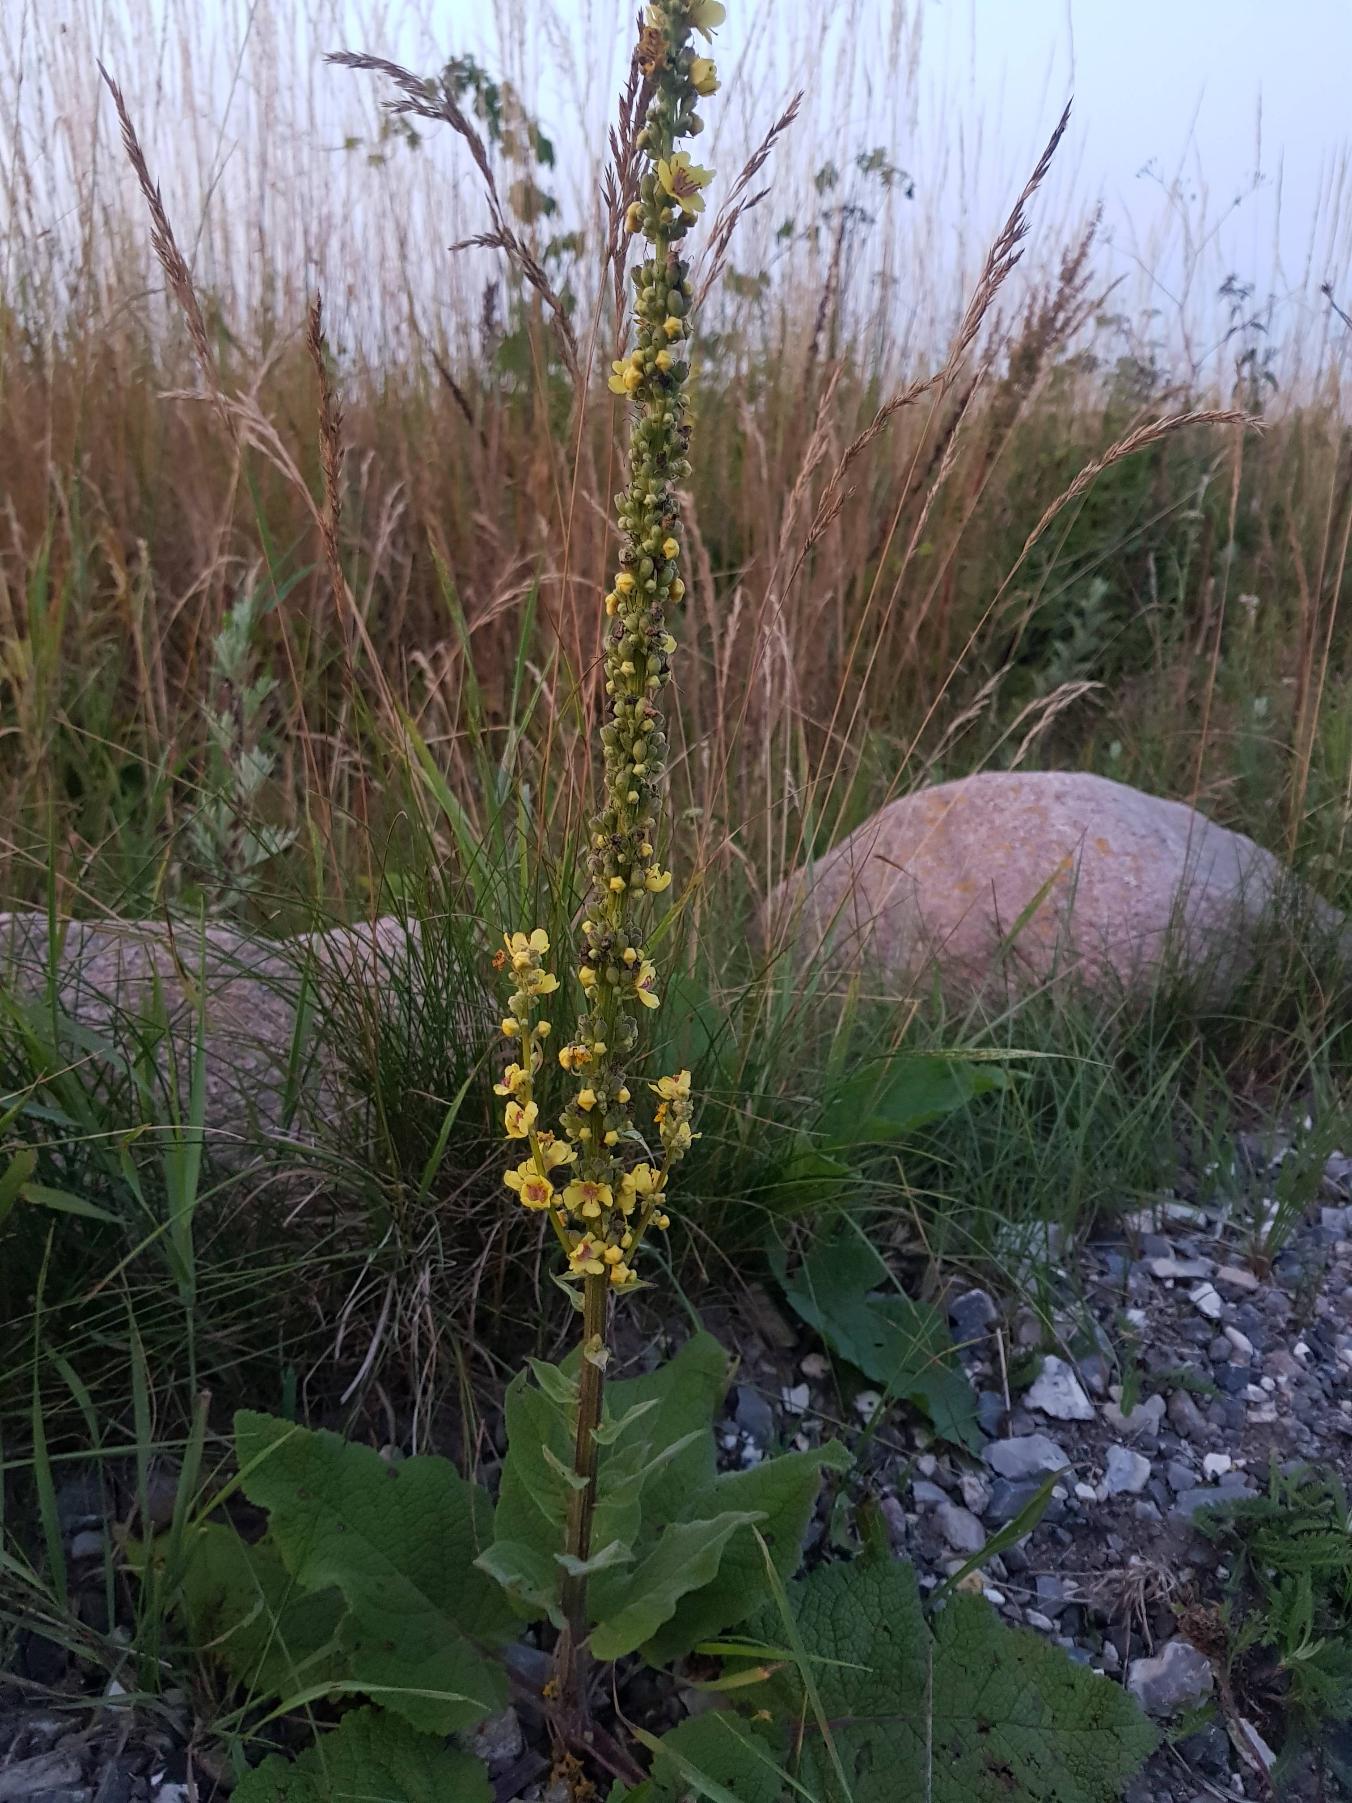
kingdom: Plantae
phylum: Tracheophyta
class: Magnoliopsida
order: Lamiales
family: Scrophulariaceae
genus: Verbascum
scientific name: Verbascum nigrum
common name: Mørk kongelys
